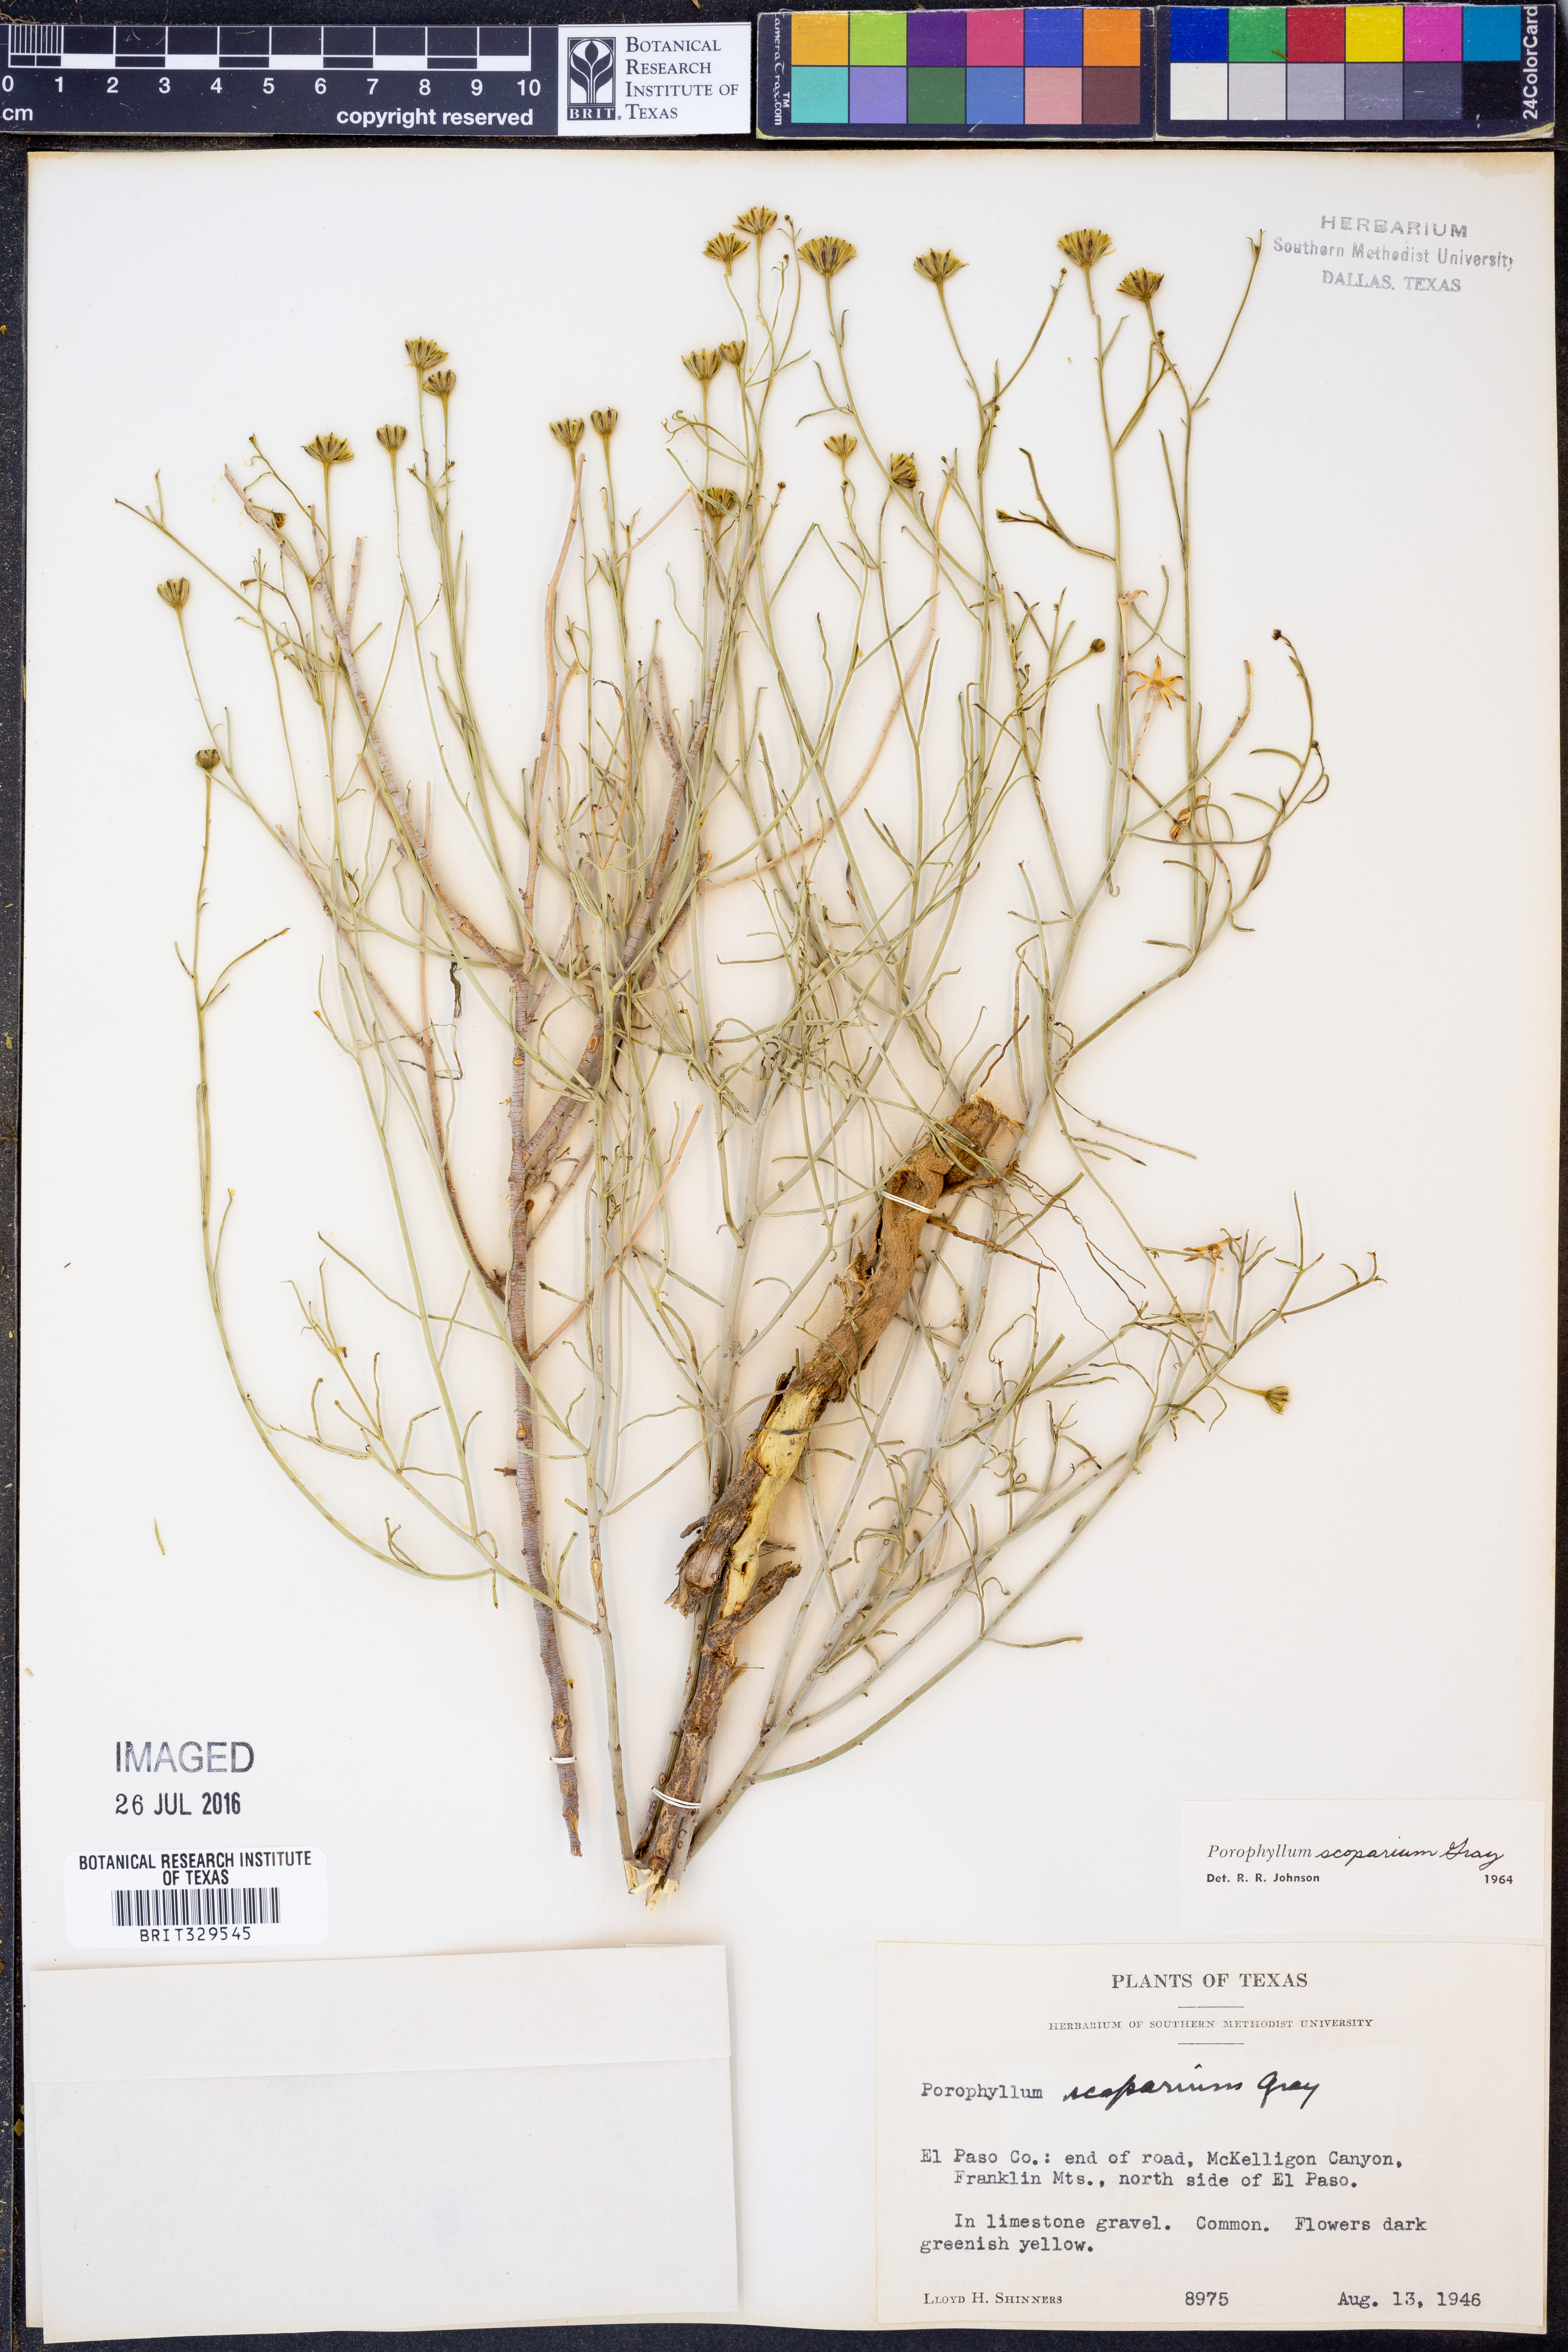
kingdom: Plantae
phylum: Tracheophyta
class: Magnoliopsida
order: Asterales
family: Asteraceae
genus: Porophyllum
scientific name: Porophyllum scoparium
